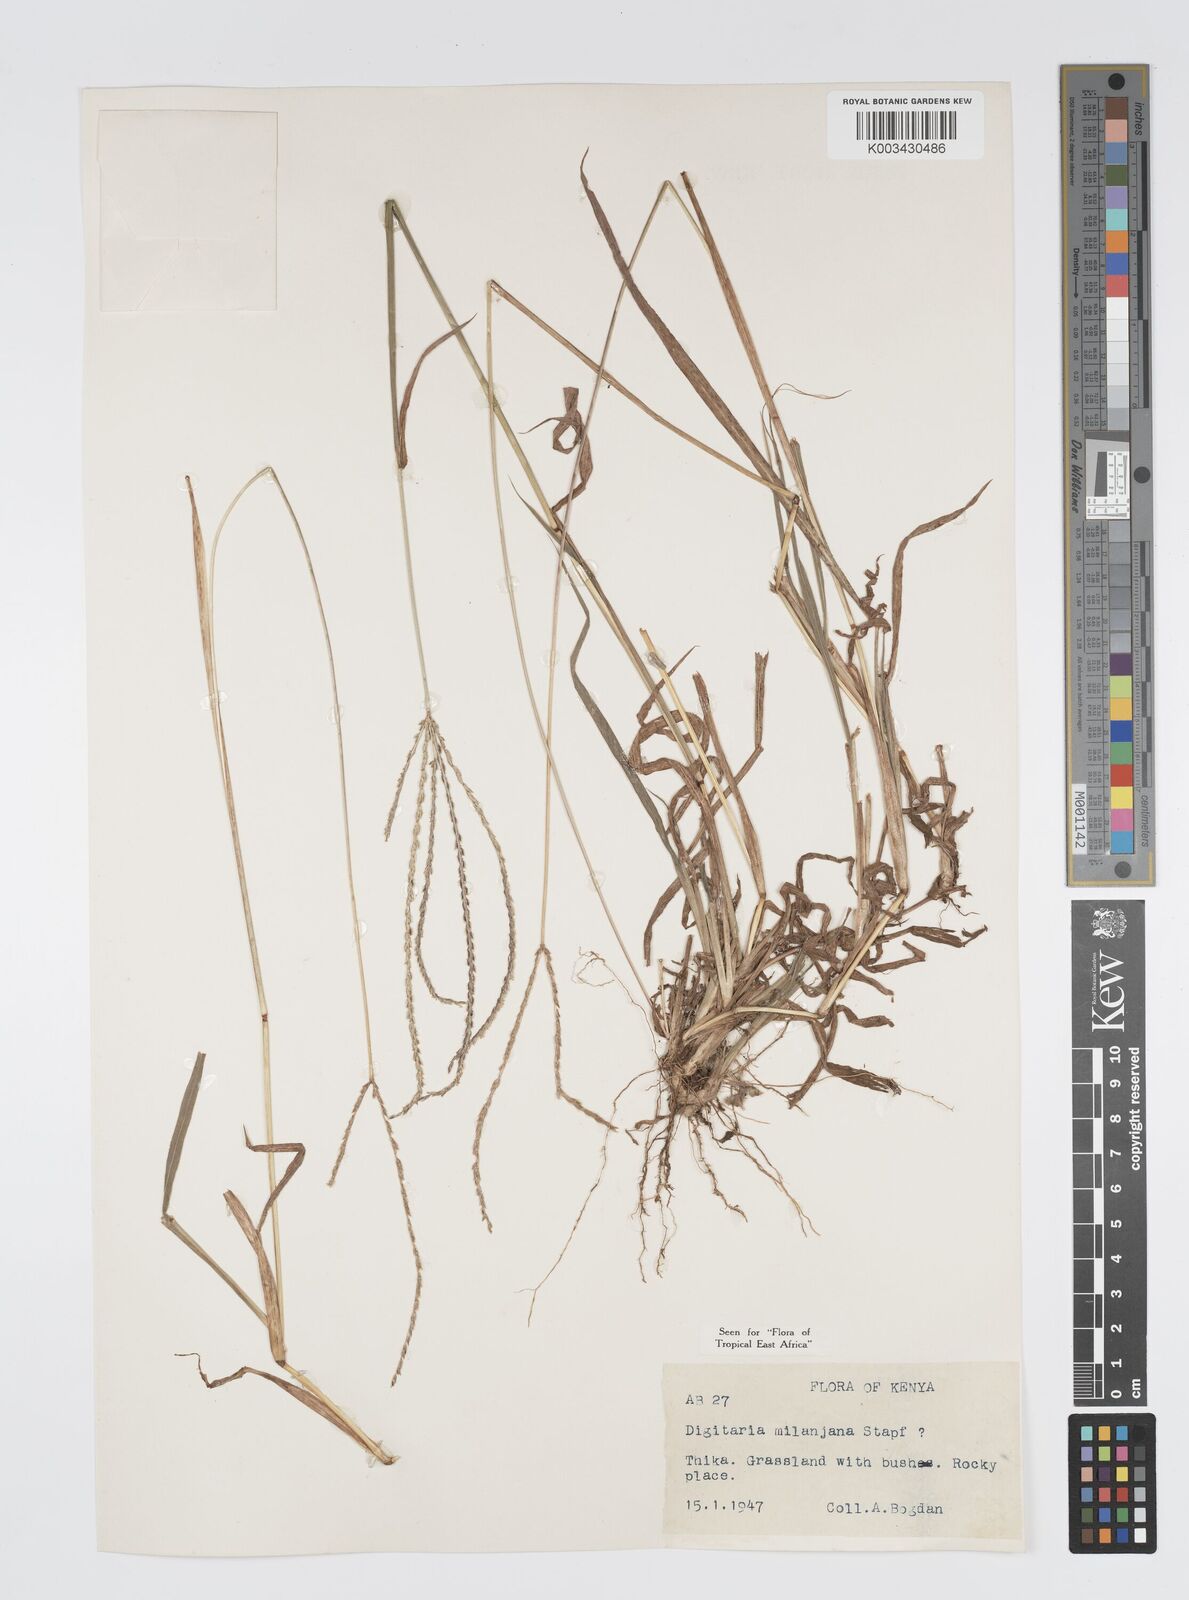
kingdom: Plantae
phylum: Tracheophyta
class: Liliopsida
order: Poales
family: Poaceae
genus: Digitaria
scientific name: Digitaria milanjiana
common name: Madagascar crabgrass
